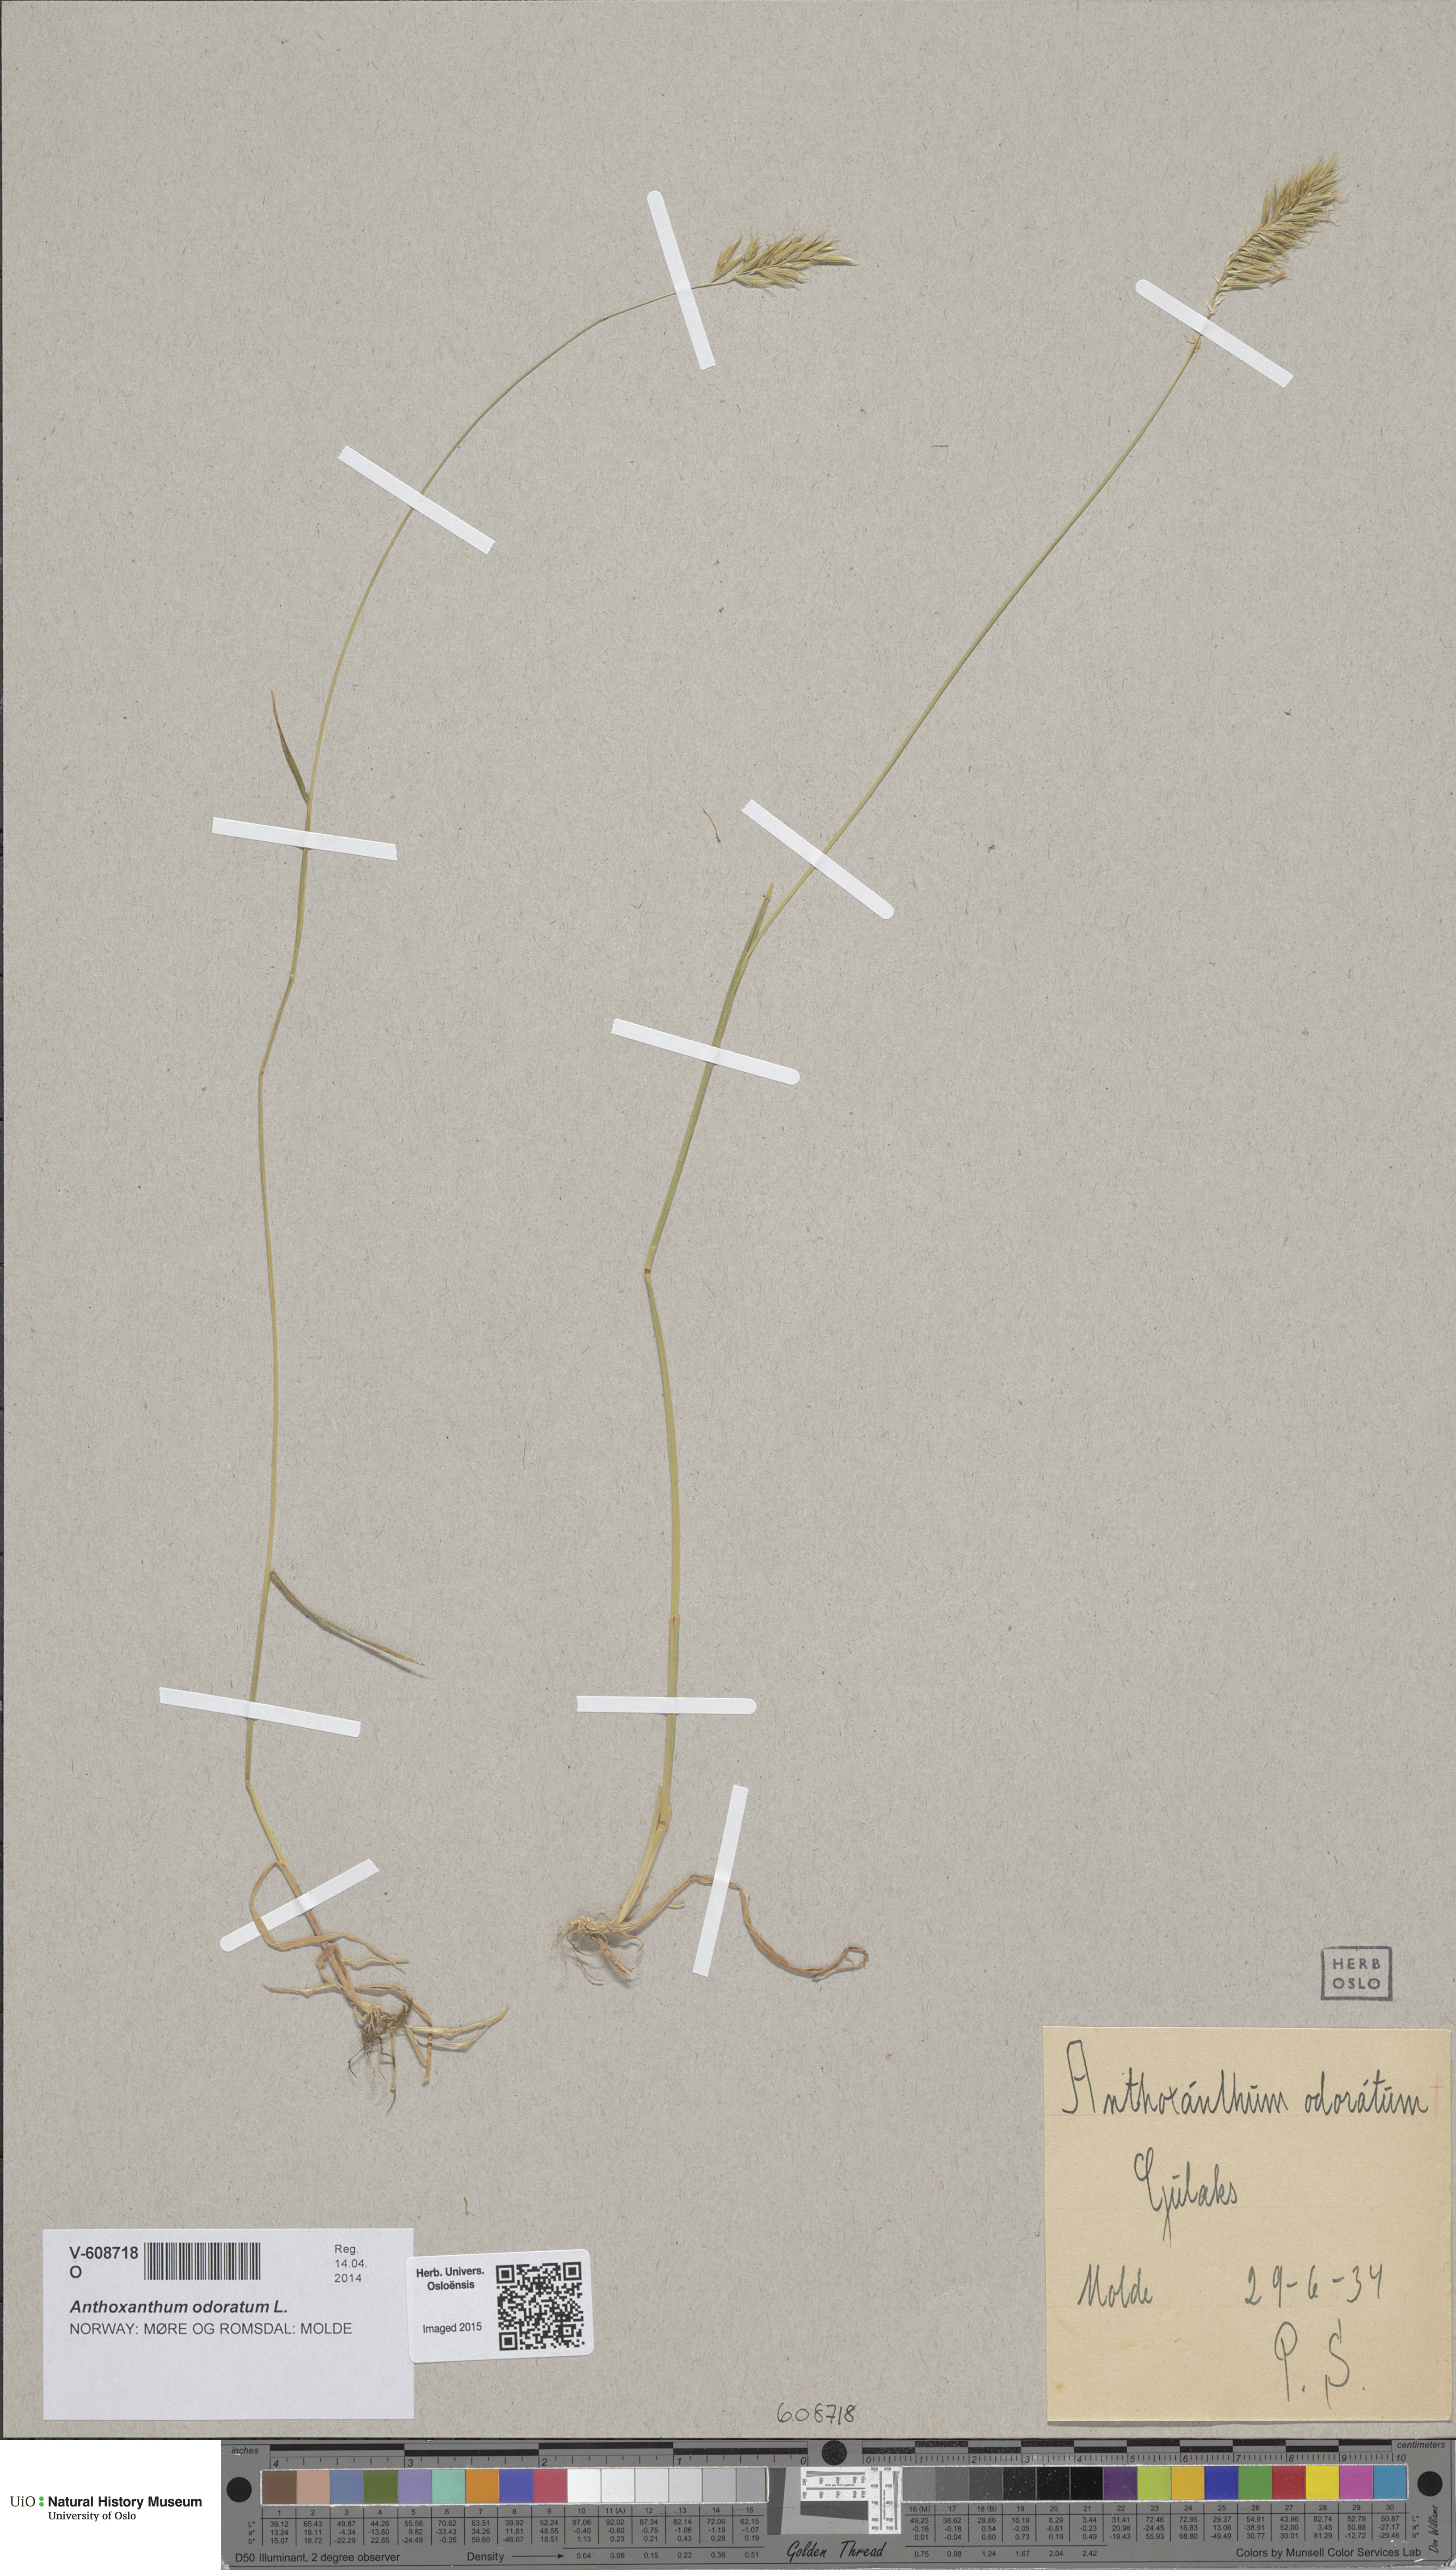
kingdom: Plantae
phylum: Tracheophyta
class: Liliopsida
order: Poales
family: Poaceae
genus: Anthoxanthum
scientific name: Anthoxanthum odoratum
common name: Sweet vernalgrass
